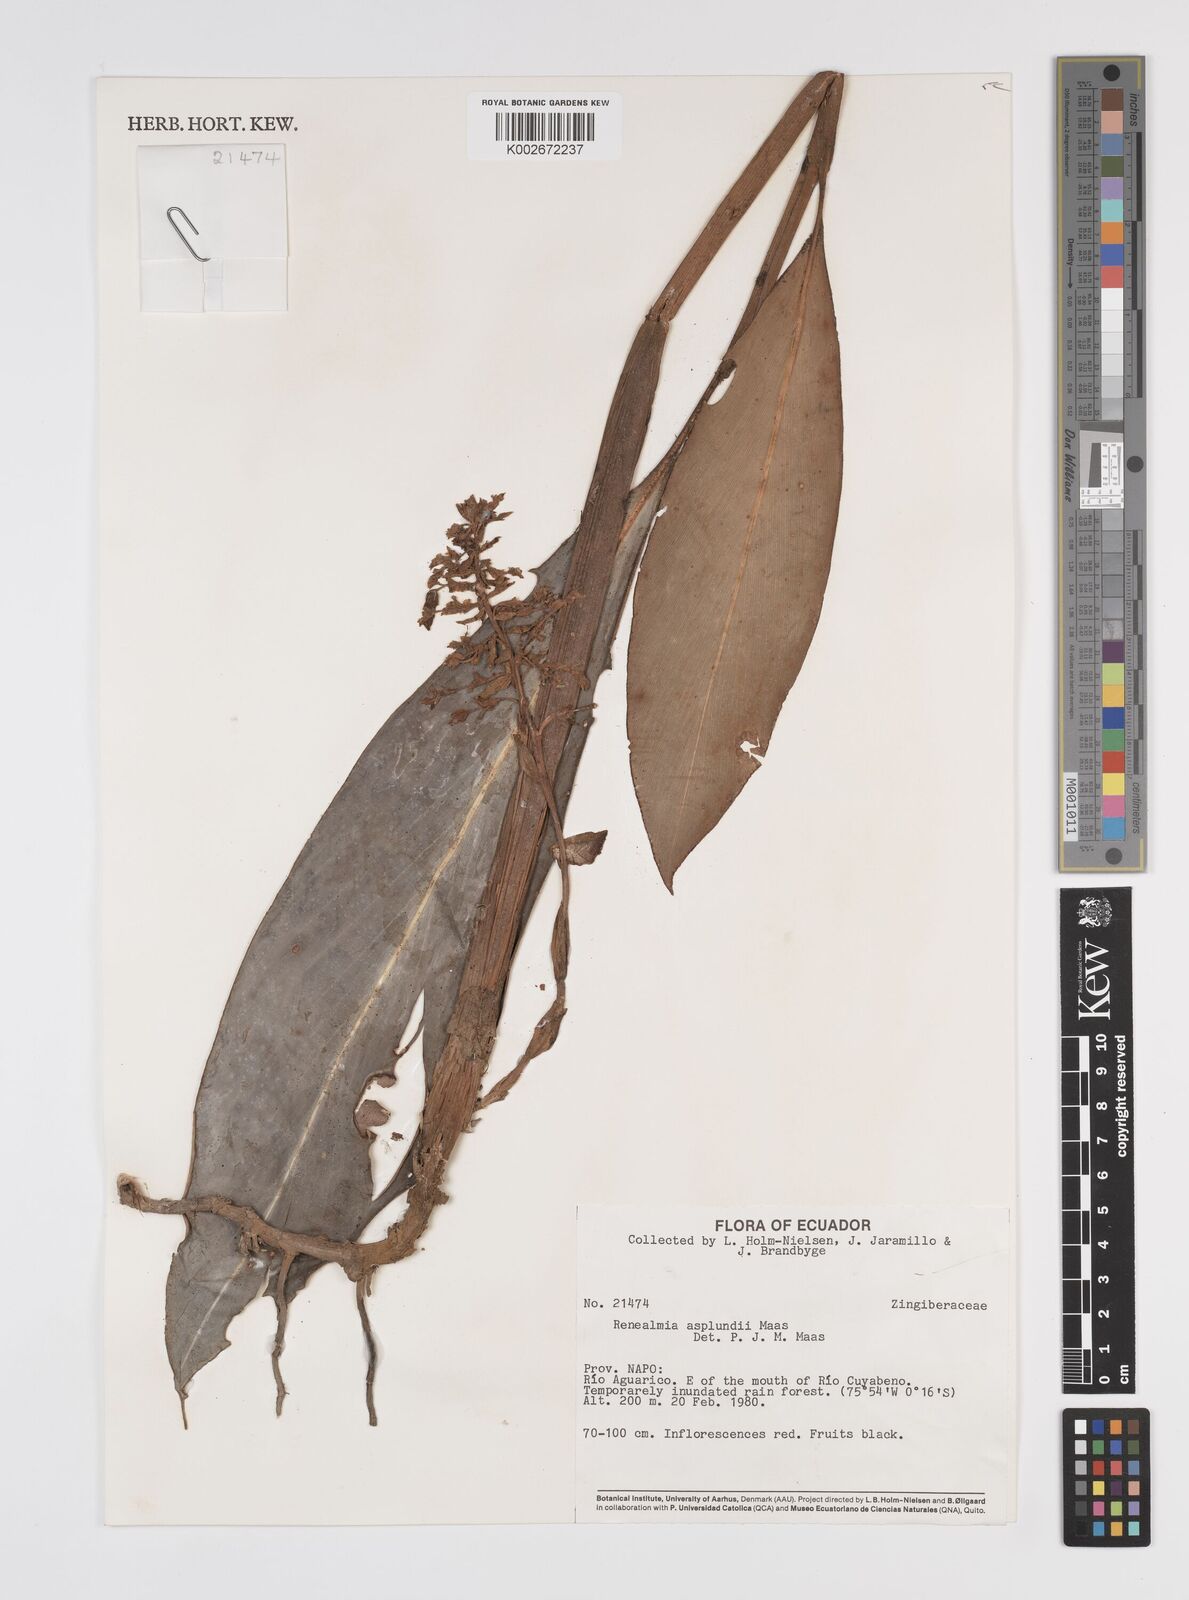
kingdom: Plantae
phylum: Tracheophyta
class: Liliopsida
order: Zingiberales
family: Zingiberaceae
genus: Renealmia
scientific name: Renealmia asplundii
